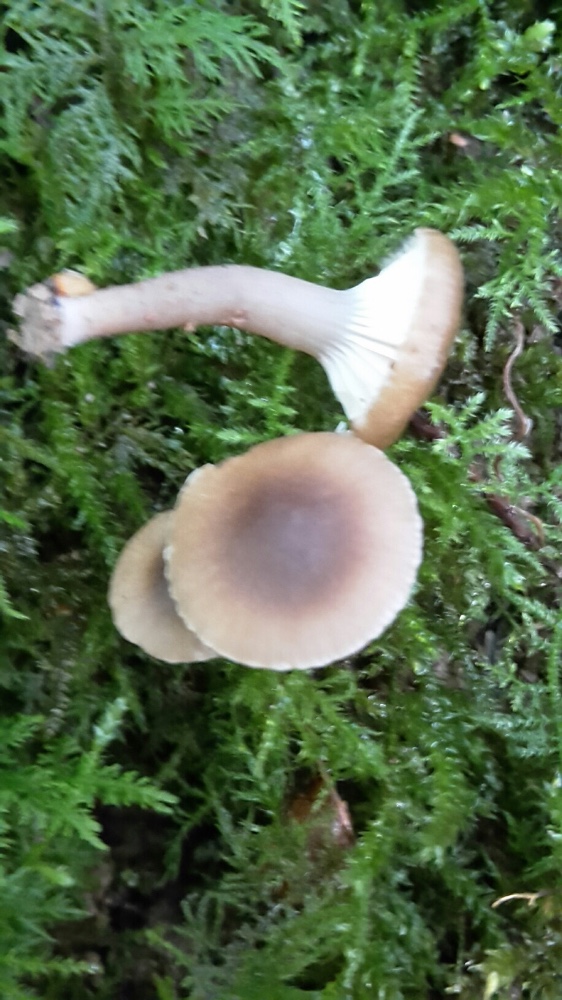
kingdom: Fungi
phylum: Basidiomycota
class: Agaricomycetes
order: Agaricales
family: Clavariaceae
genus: Camarophyllopsis
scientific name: Camarophyllopsis atrovelutina
